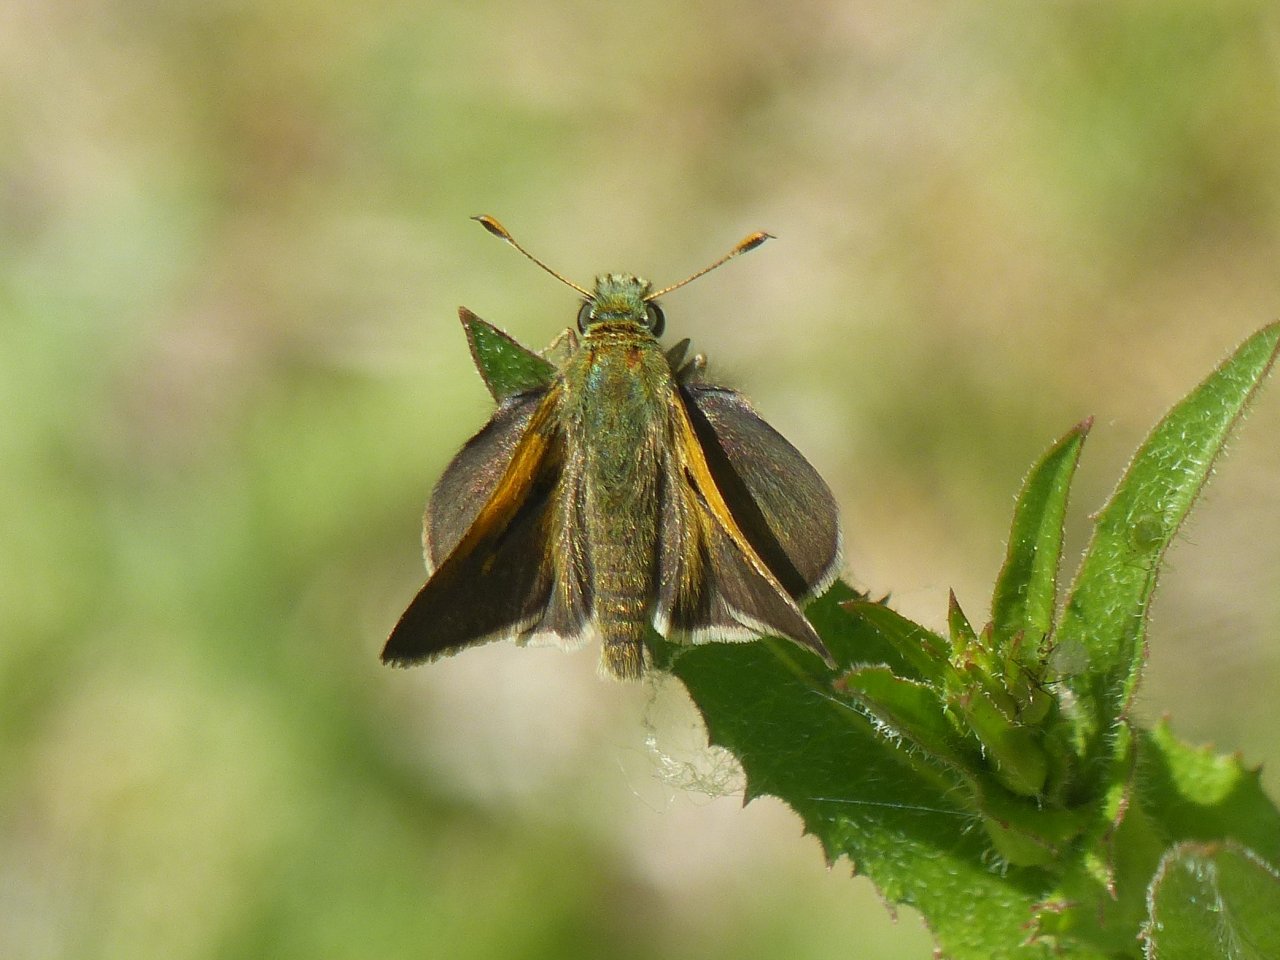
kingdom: Animalia
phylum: Arthropoda
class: Insecta
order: Lepidoptera
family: Hesperiidae
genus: Polites
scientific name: Polites themistocles
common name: Tawny-edged Skipper
